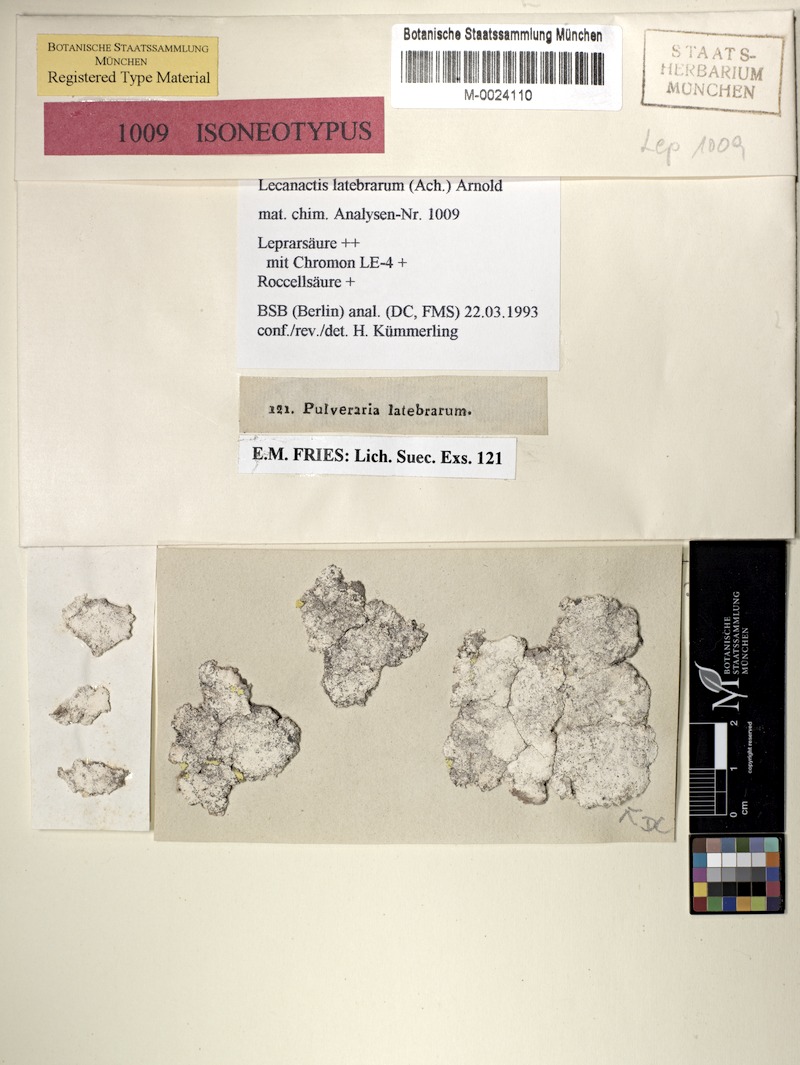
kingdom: Fungi
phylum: Ascomycota
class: Arthoniomycetes
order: Arthoniales
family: Roccellaceae
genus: Dendrographa
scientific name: Dendrographa latebrarum
